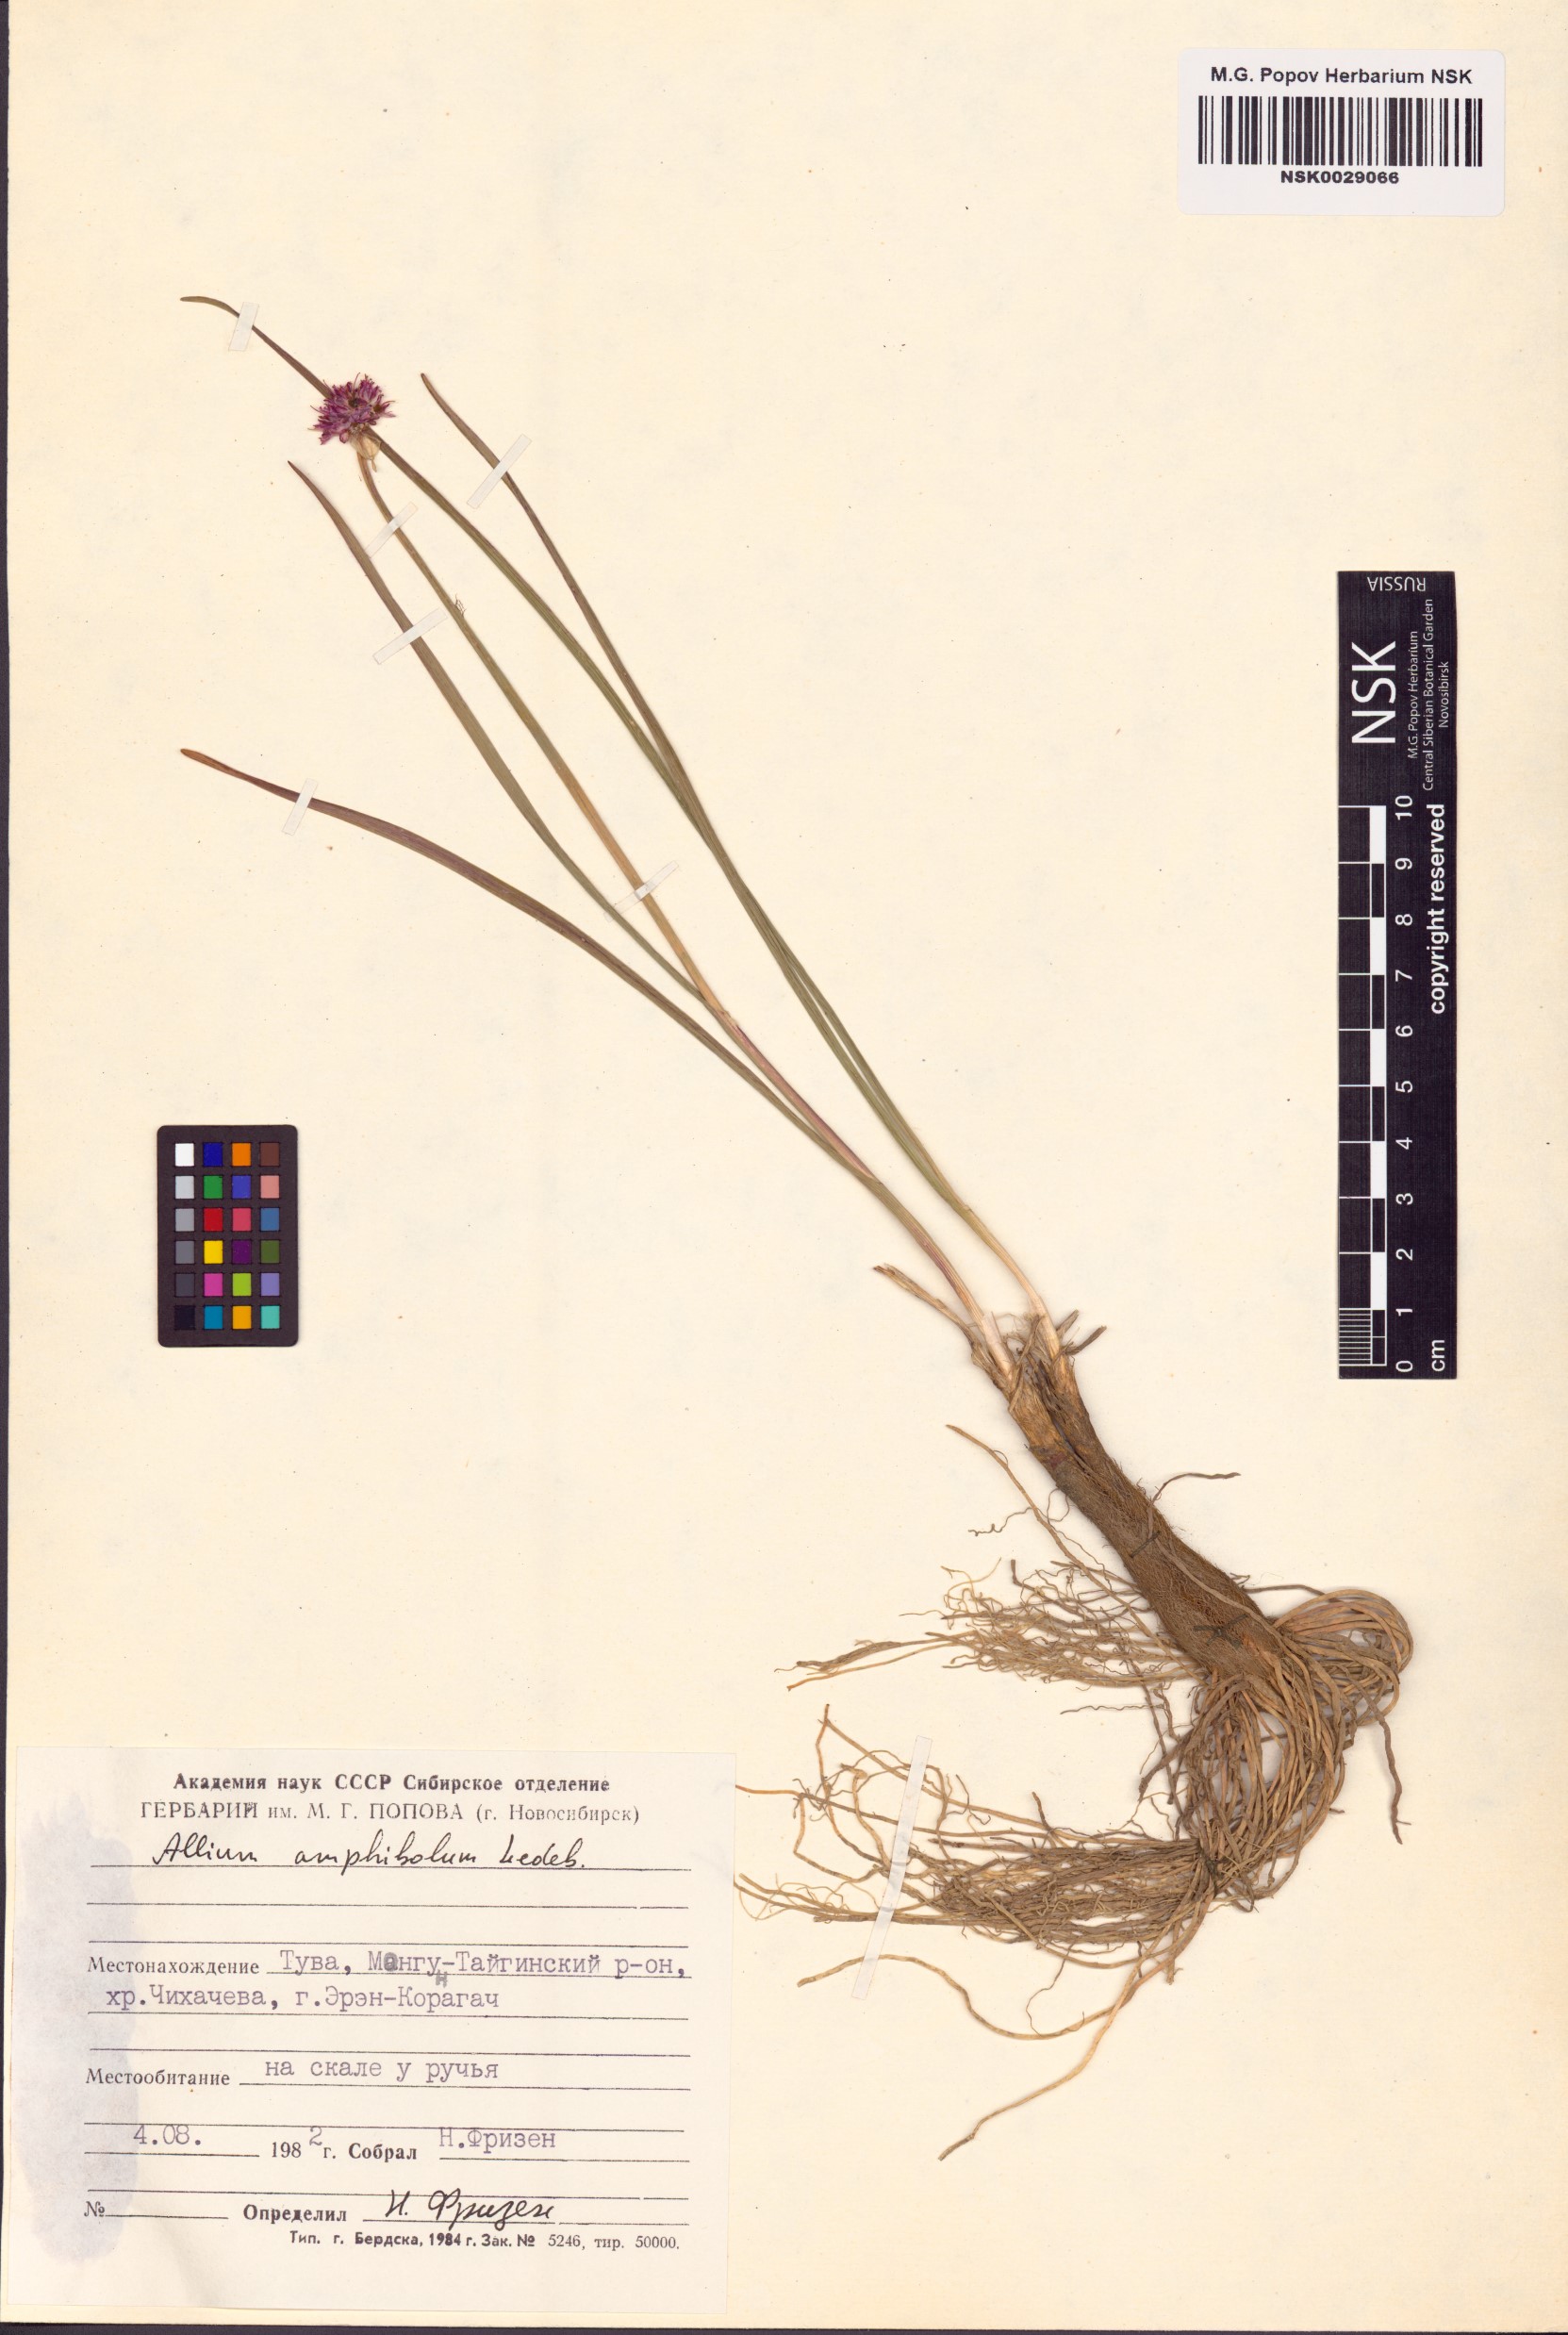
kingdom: Plantae
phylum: Tracheophyta
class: Liliopsida
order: Asparagales
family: Amaryllidaceae
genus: Allium
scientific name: Allium amphibolum
